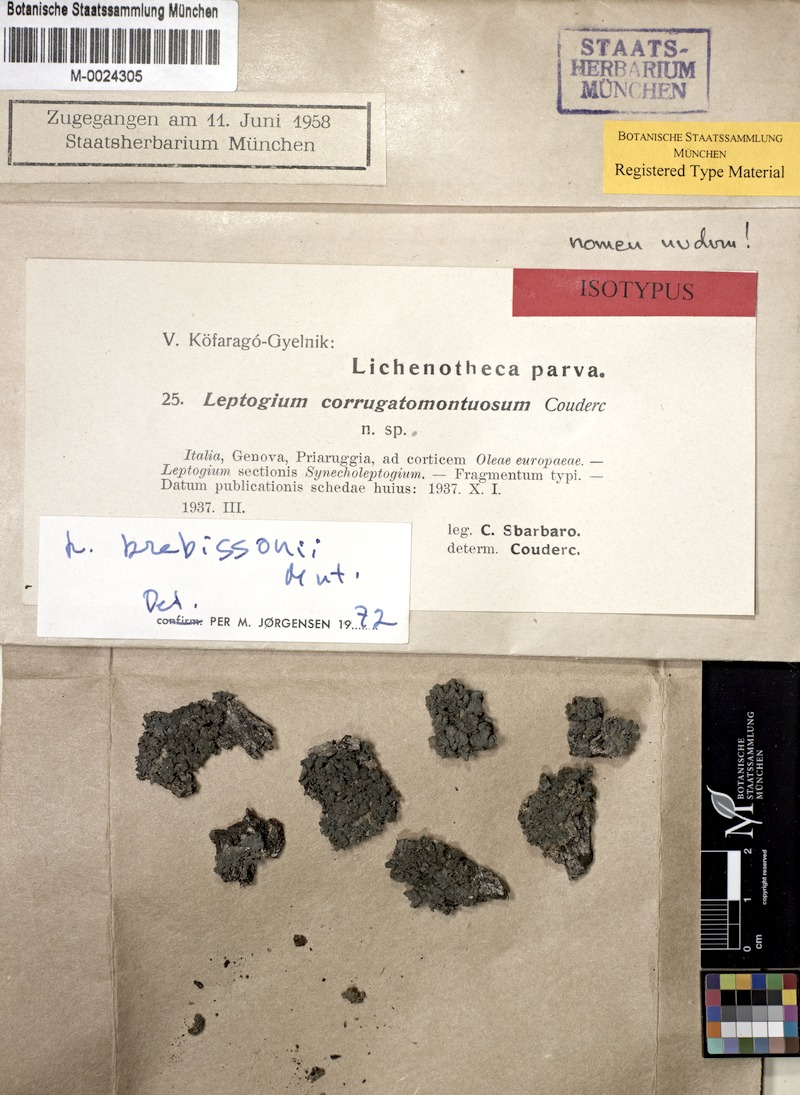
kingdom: Fungi
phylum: Ascomycota
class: Lecanoromycetes
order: Peltigerales
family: Collemataceae
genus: Leptogium
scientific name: Leptogium brebissonii
